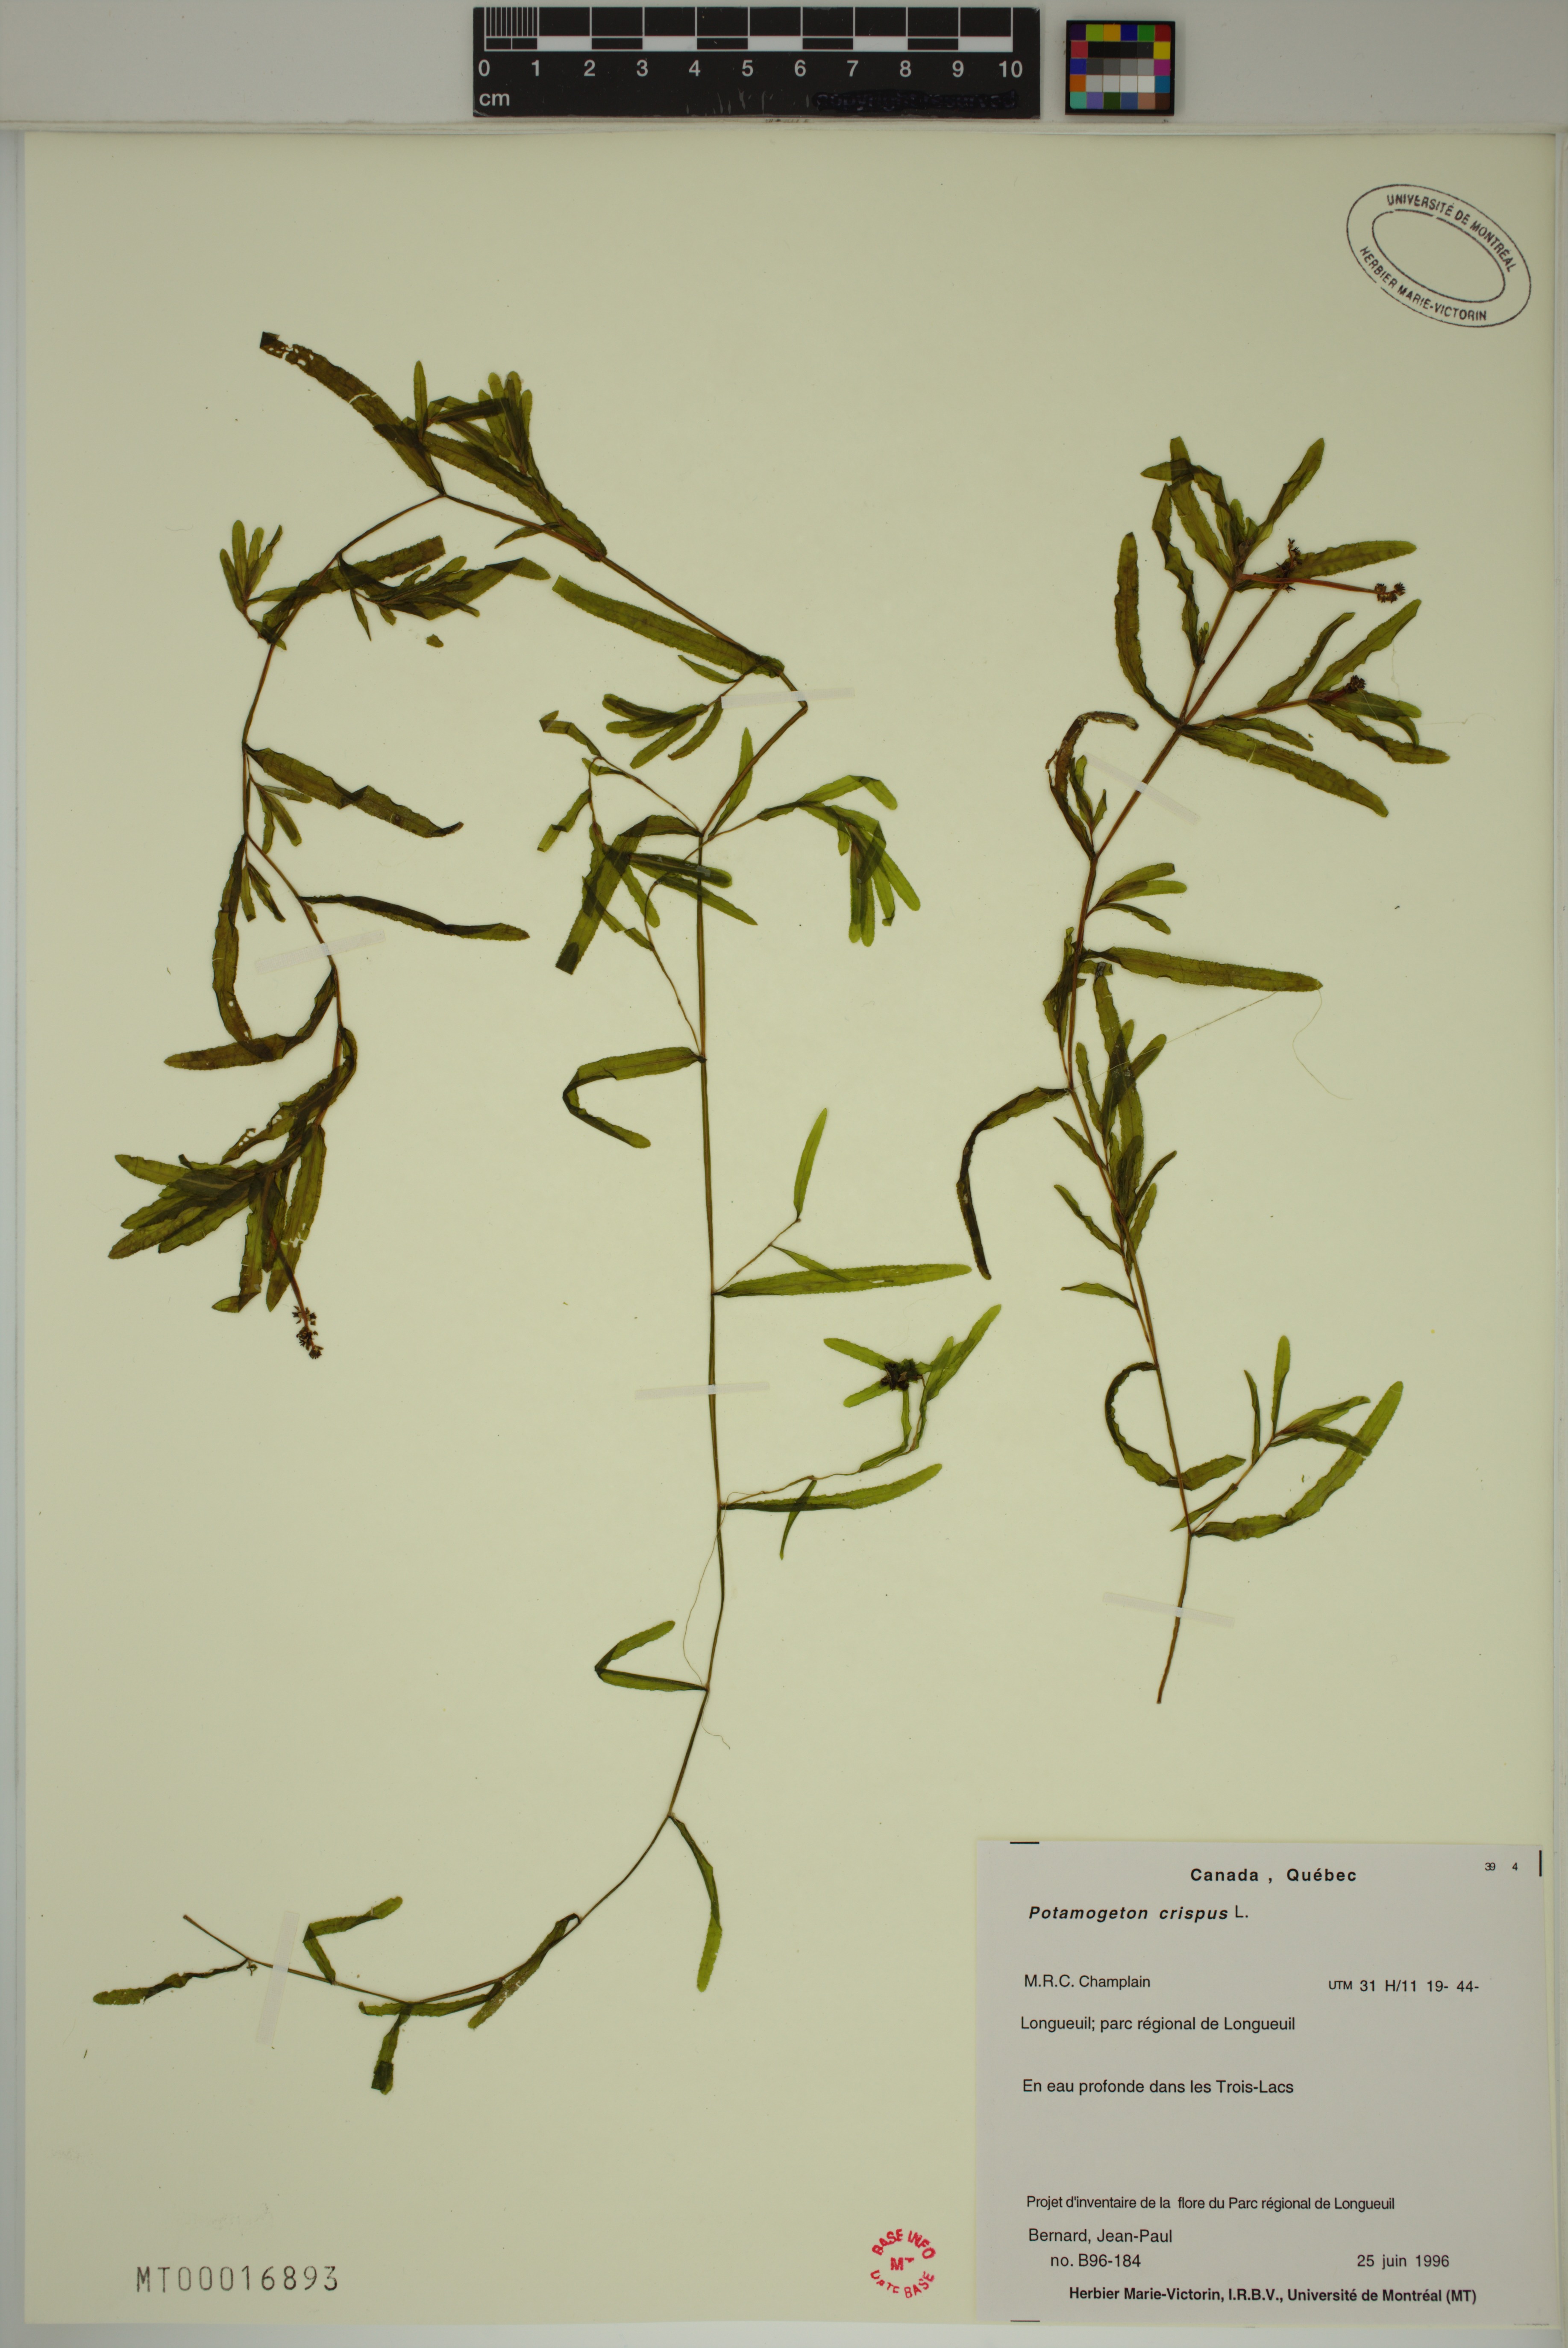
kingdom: Plantae
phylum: Tracheophyta
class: Liliopsida
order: Alismatales
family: Potamogetonaceae
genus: Potamogeton
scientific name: Potamogeton crispus
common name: Curled pondweed
